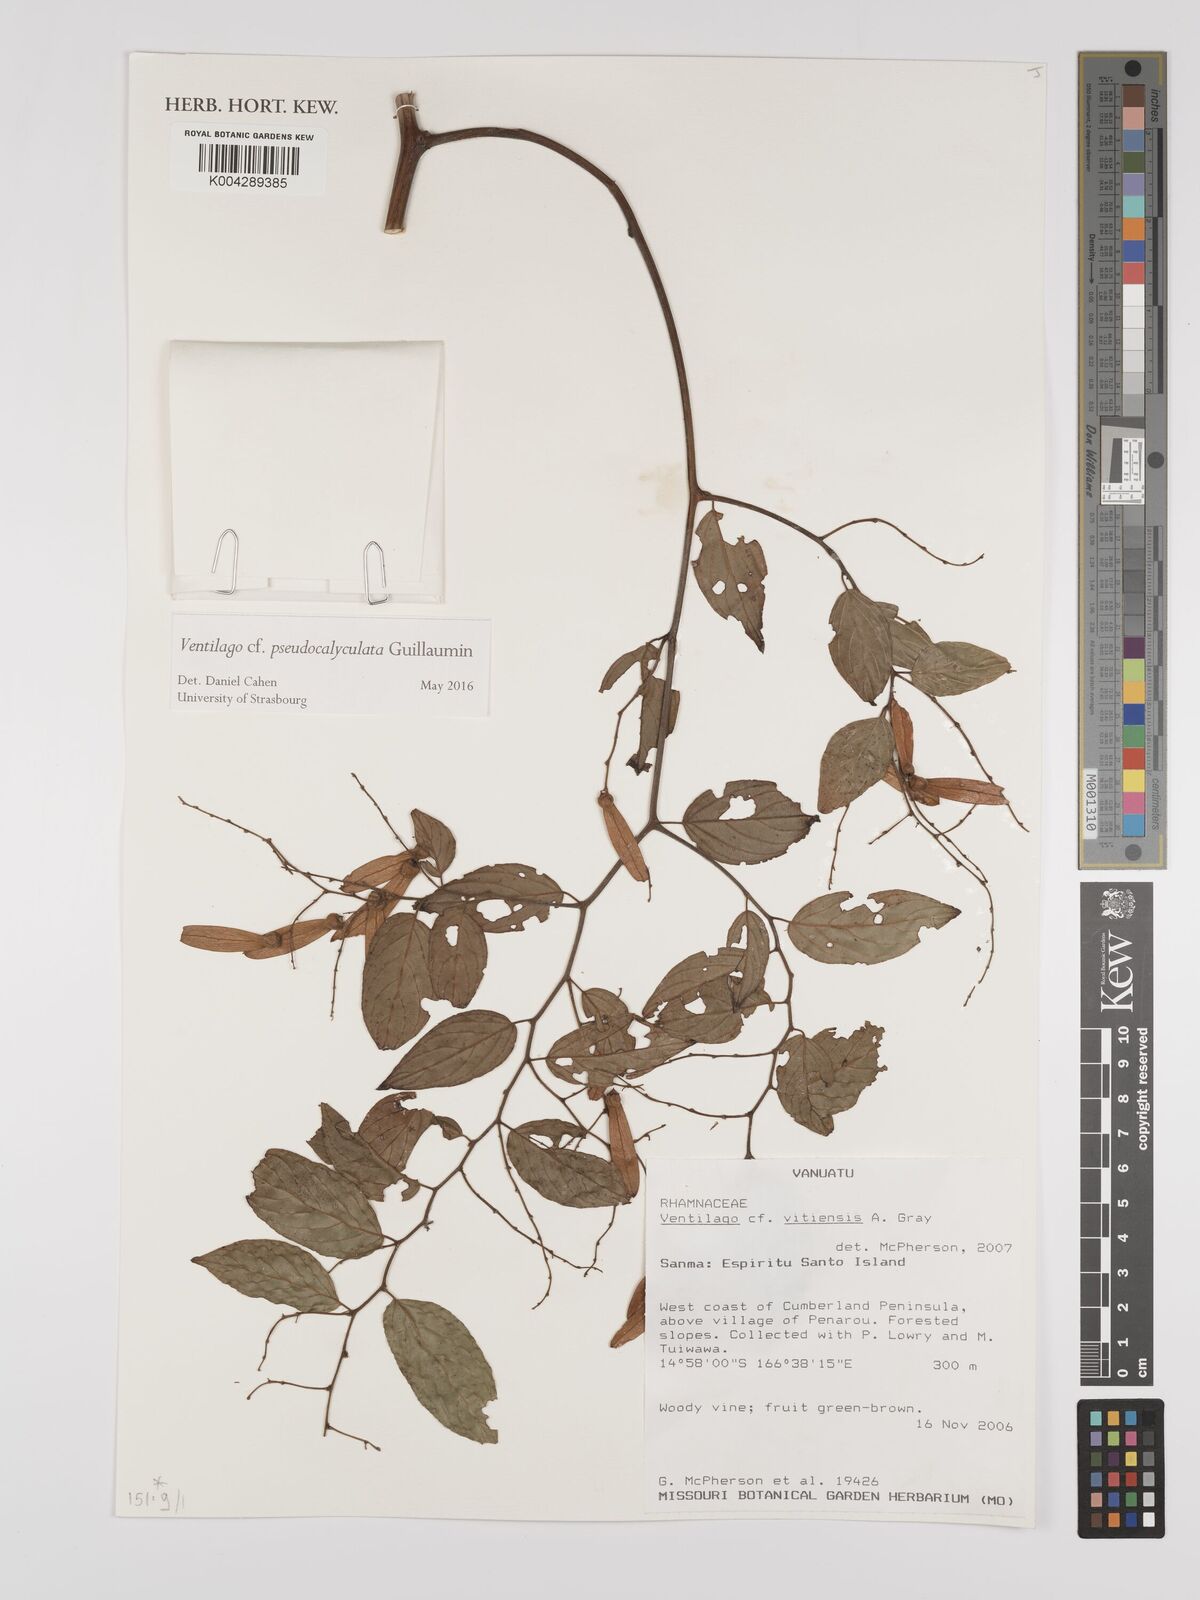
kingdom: Plantae
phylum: Tracheophyta
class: Magnoliopsida
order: Rosales
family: Rhamnaceae
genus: Ventilago
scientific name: Ventilago vitiensis
